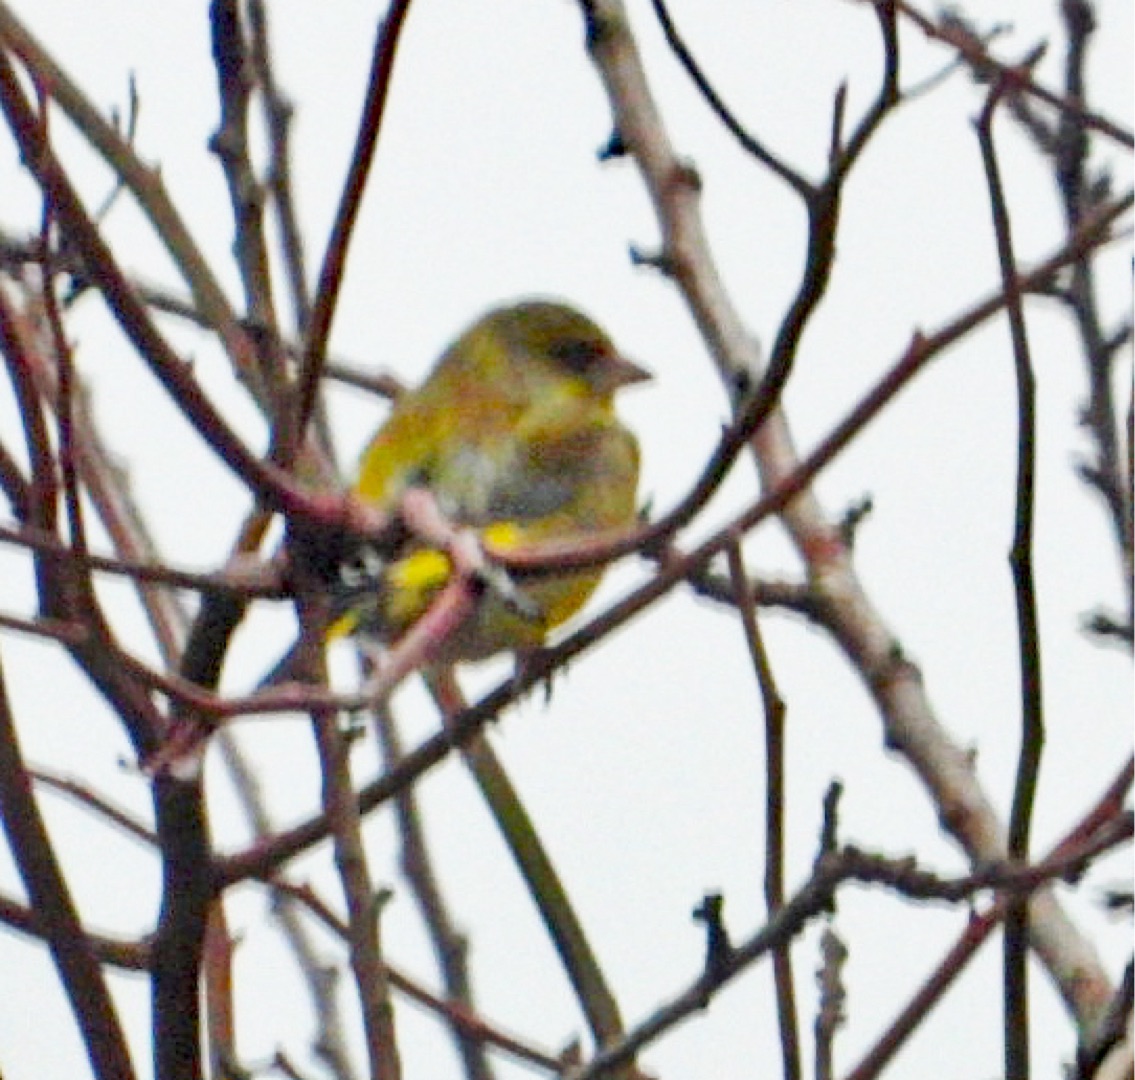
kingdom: Plantae
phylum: Tracheophyta
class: Liliopsida
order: Poales
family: Poaceae
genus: Chloris
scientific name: Chloris chloris
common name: Grønirisk
